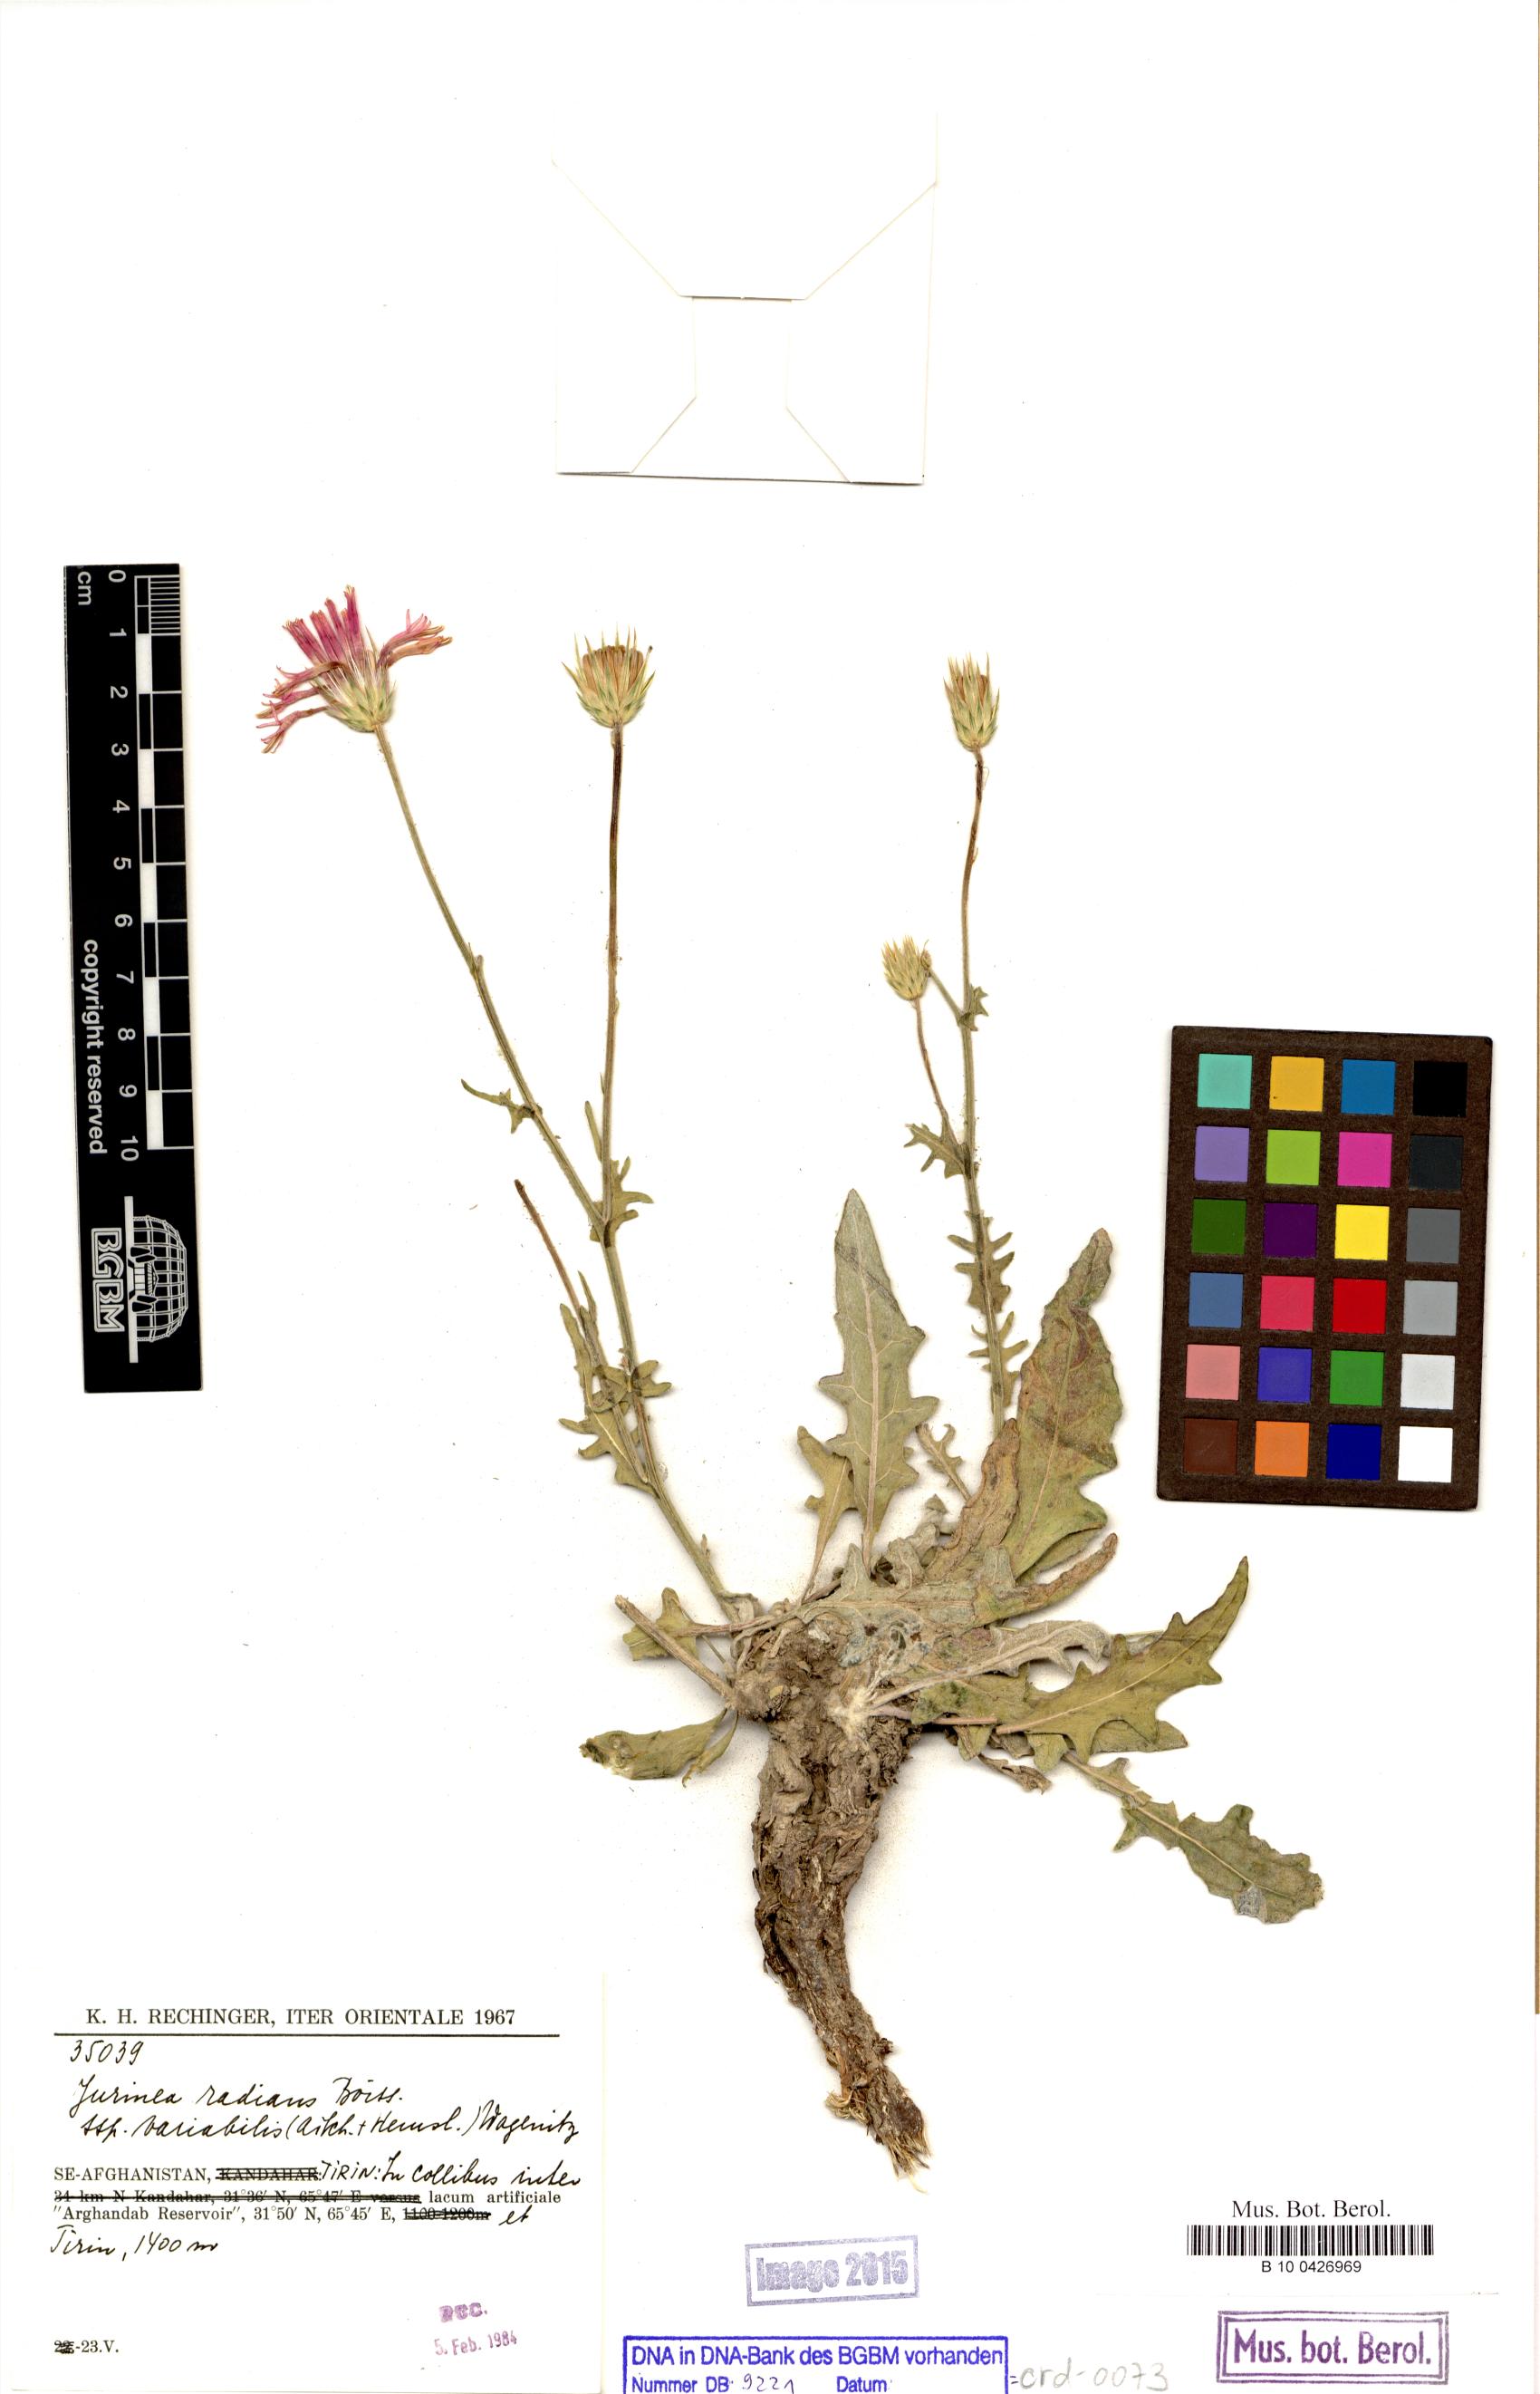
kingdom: Plantae
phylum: Tracheophyta
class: Magnoliopsida
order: Asterales
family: Asteraceae
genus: Jurinea
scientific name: Jurinea radians
